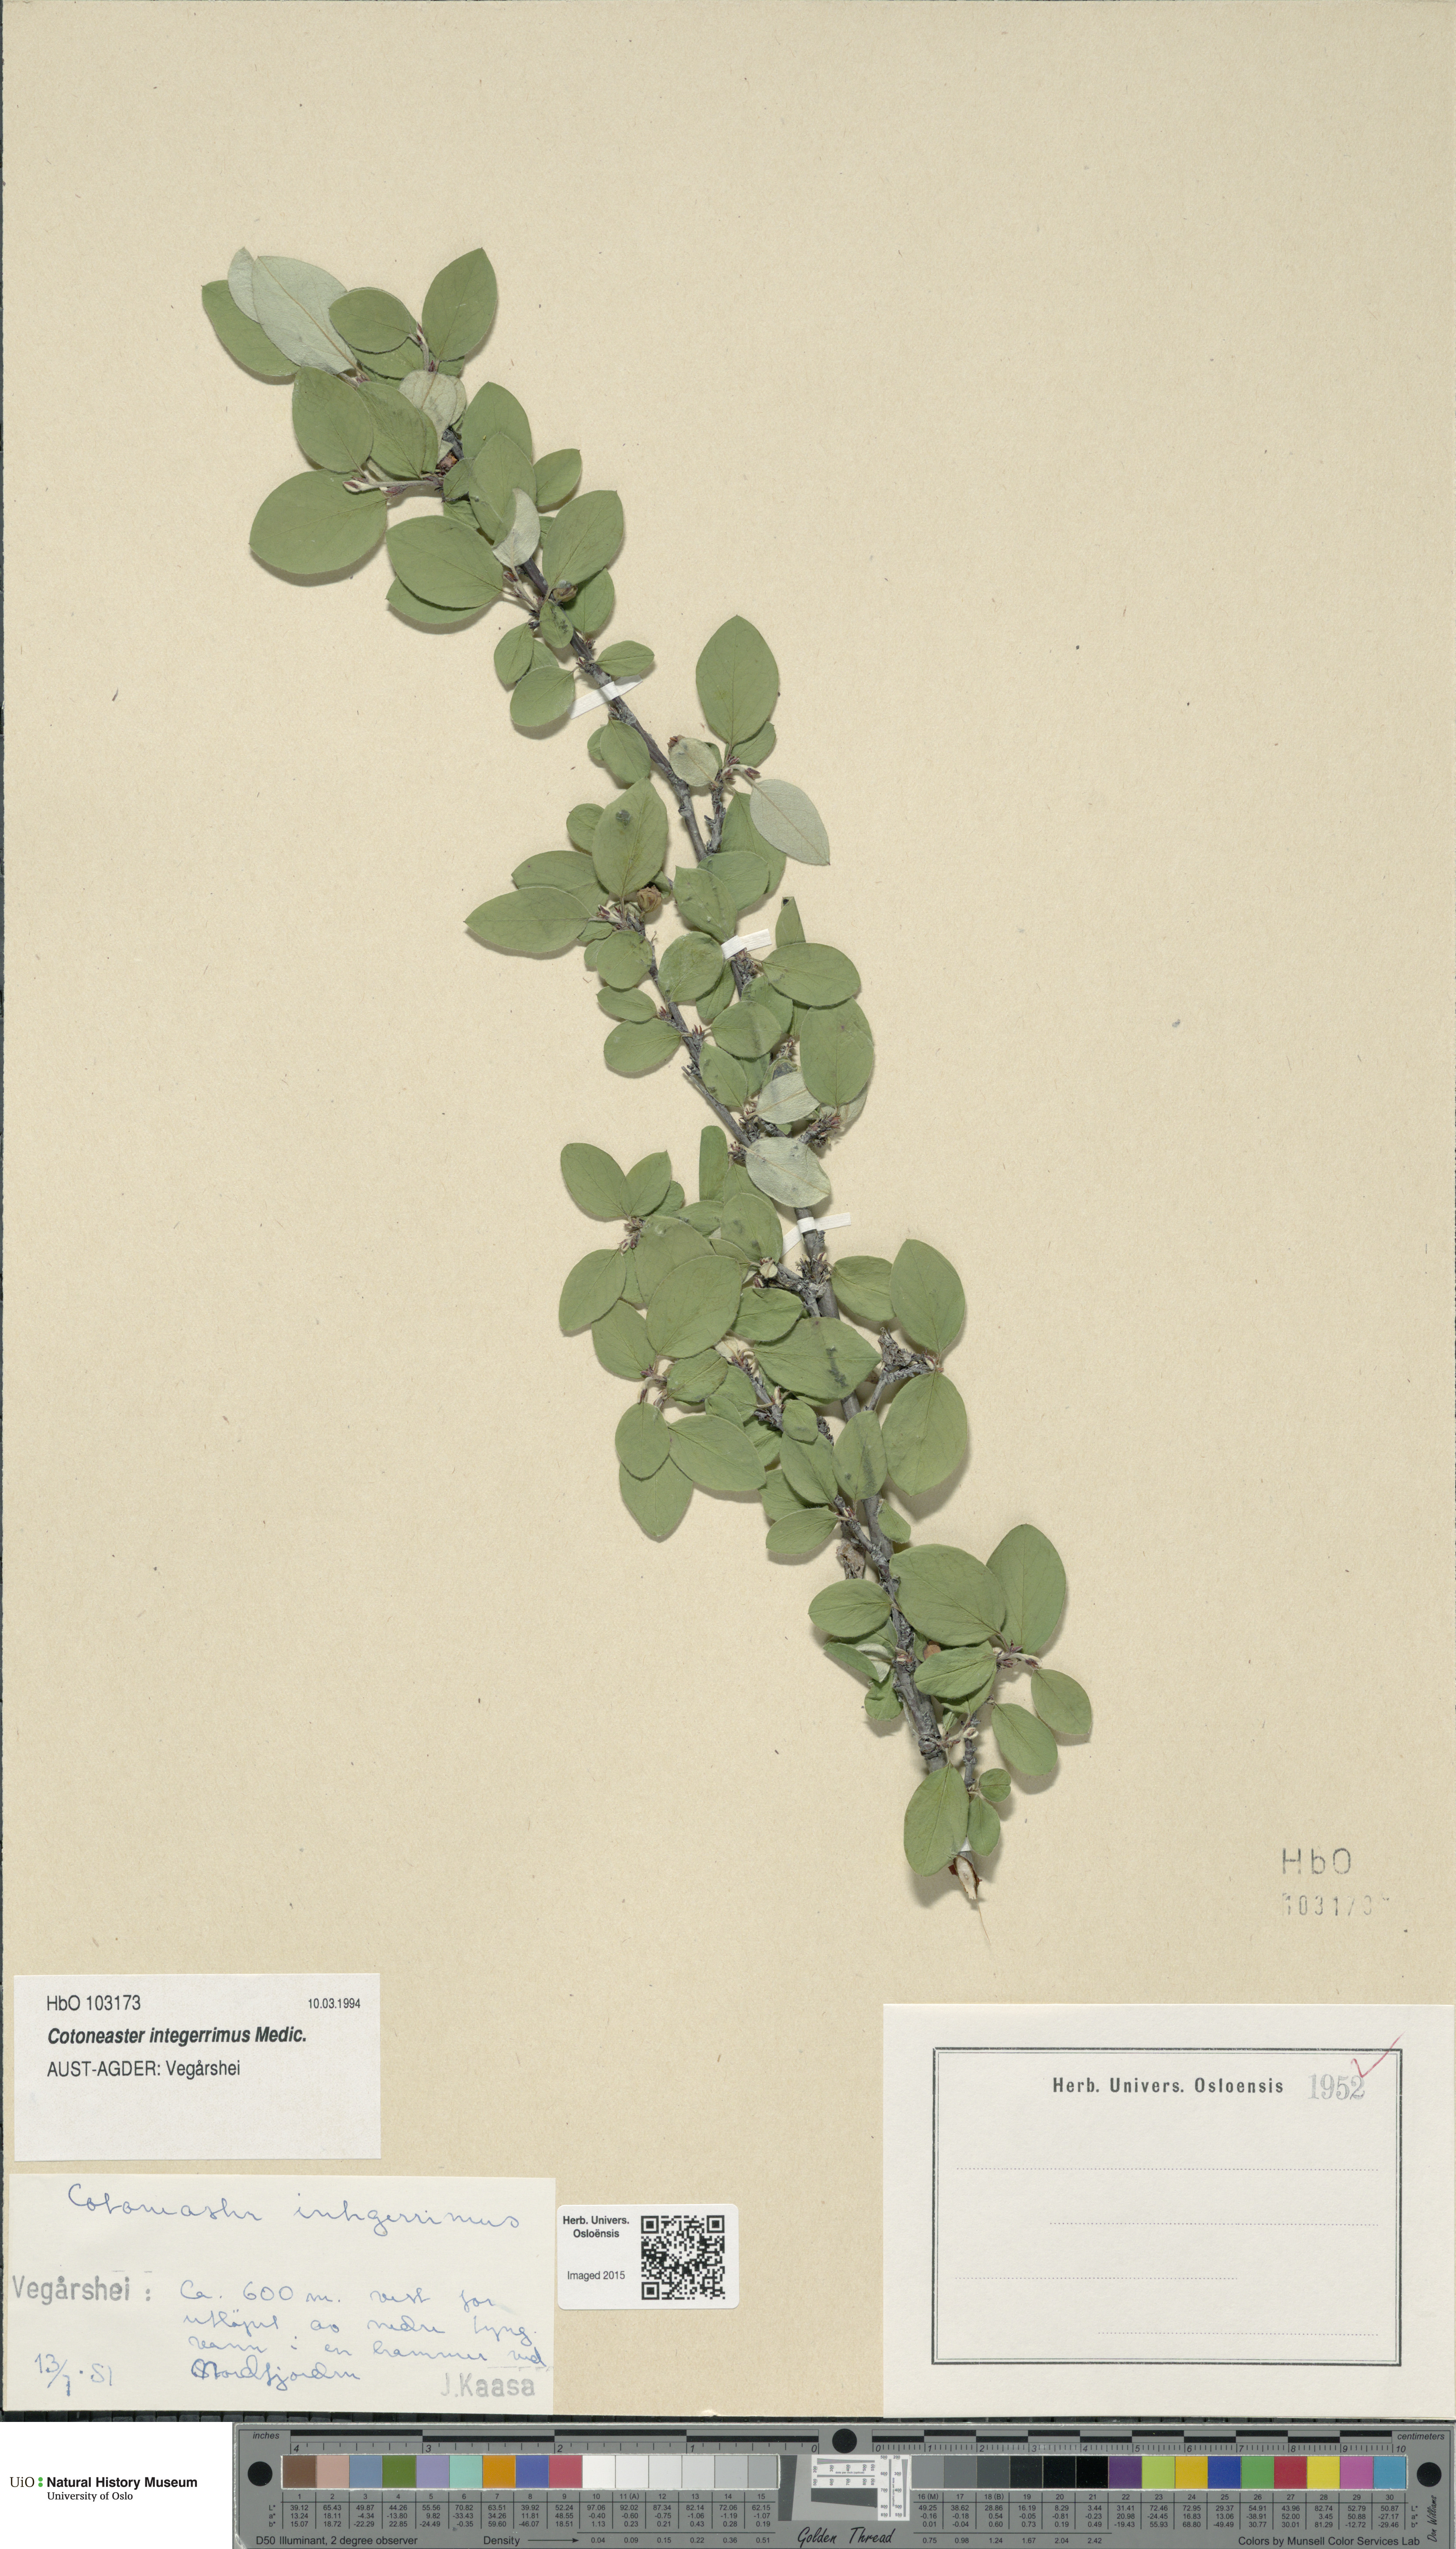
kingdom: Plantae
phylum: Tracheophyta
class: Magnoliopsida
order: Rosales
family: Rosaceae
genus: Cotoneaster
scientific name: Cotoneaster integerrimus
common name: Wild cotoneaster
